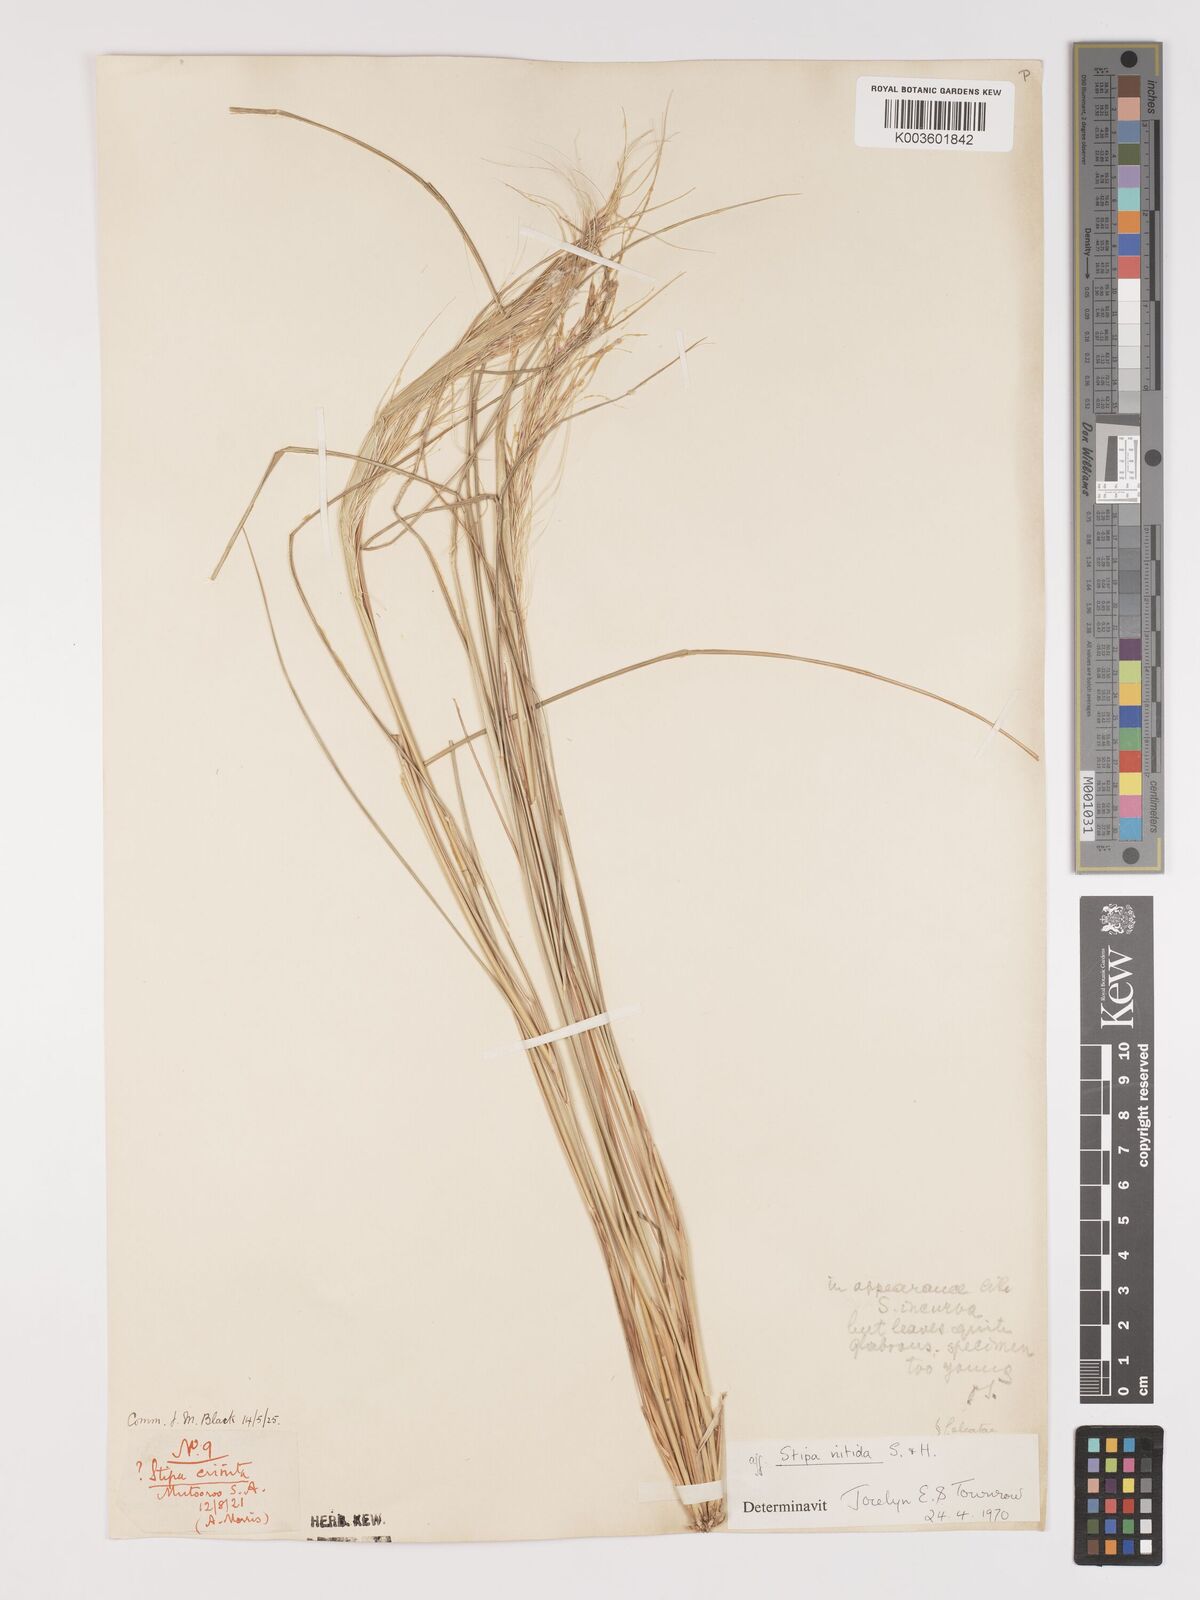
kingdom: Plantae
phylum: Tracheophyta
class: Liliopsida
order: Poales
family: Poaceae
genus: Austrostipa
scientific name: Austrostipa nitida
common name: Balcarra grass
